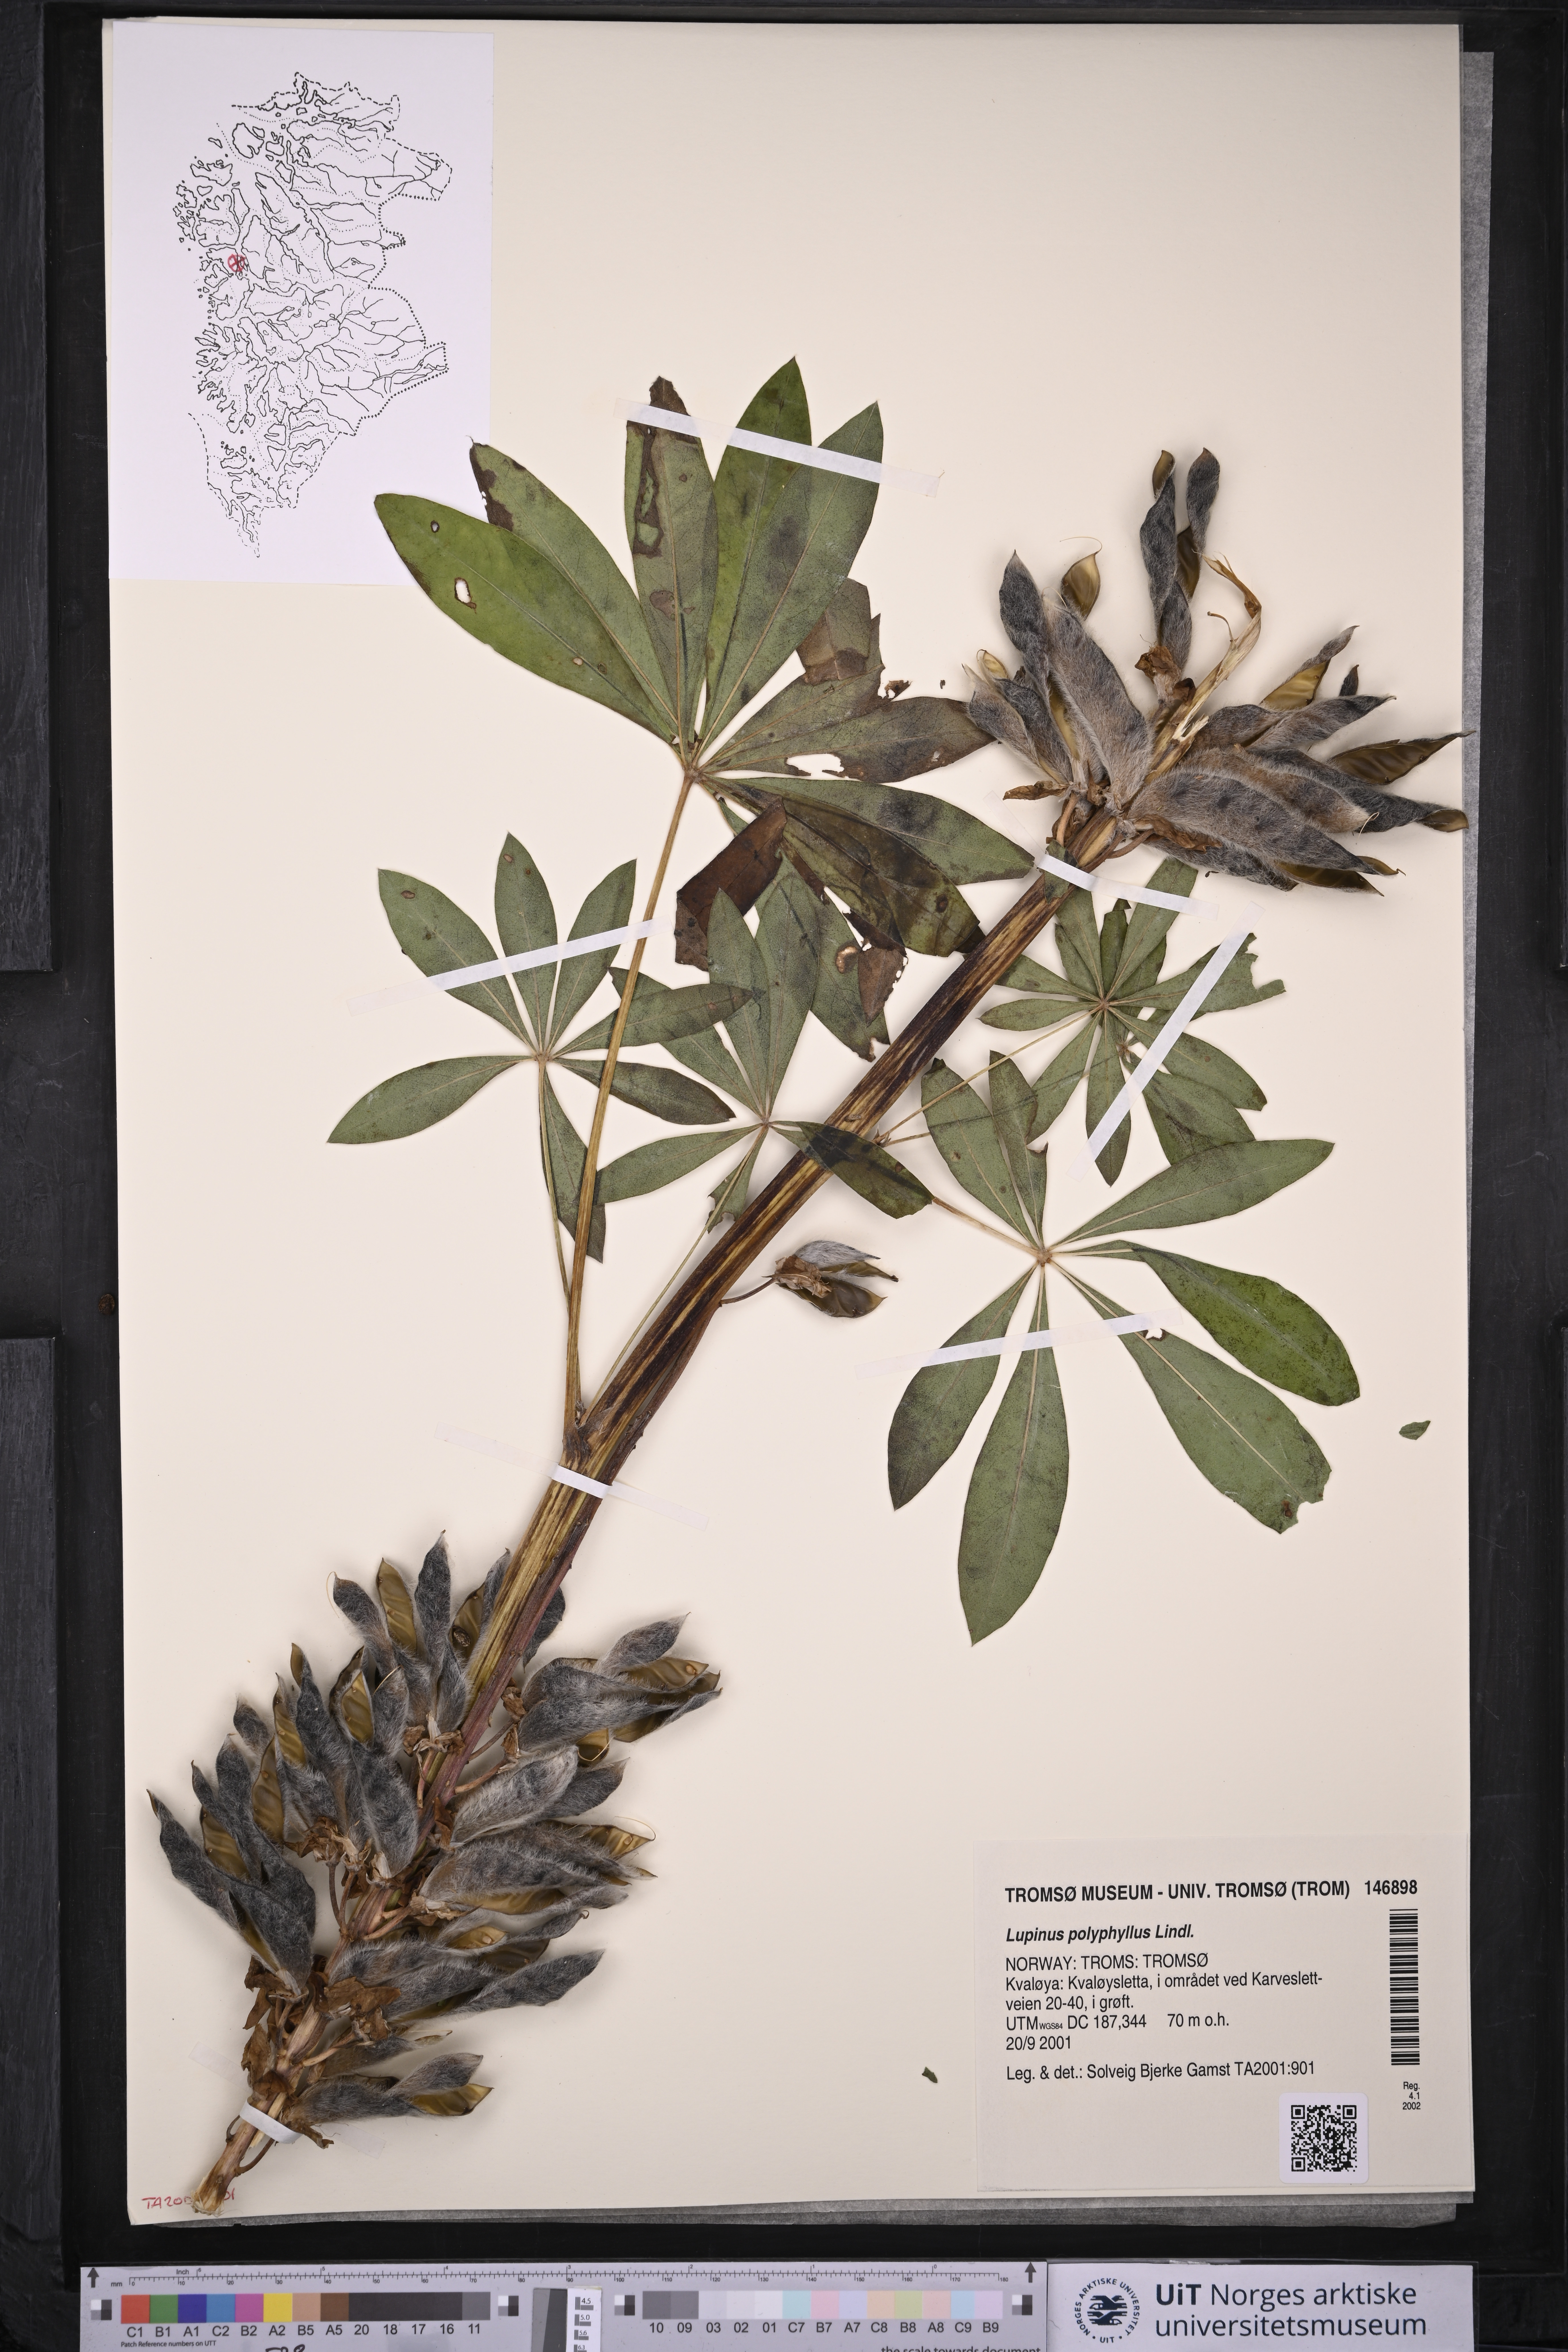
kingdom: Plantae
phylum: Tracheophyta
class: Magnoliopsida
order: Fabales
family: Fabaceae
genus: Lupinus
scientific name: Lupinus polyphyllus
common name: Garden lupin
